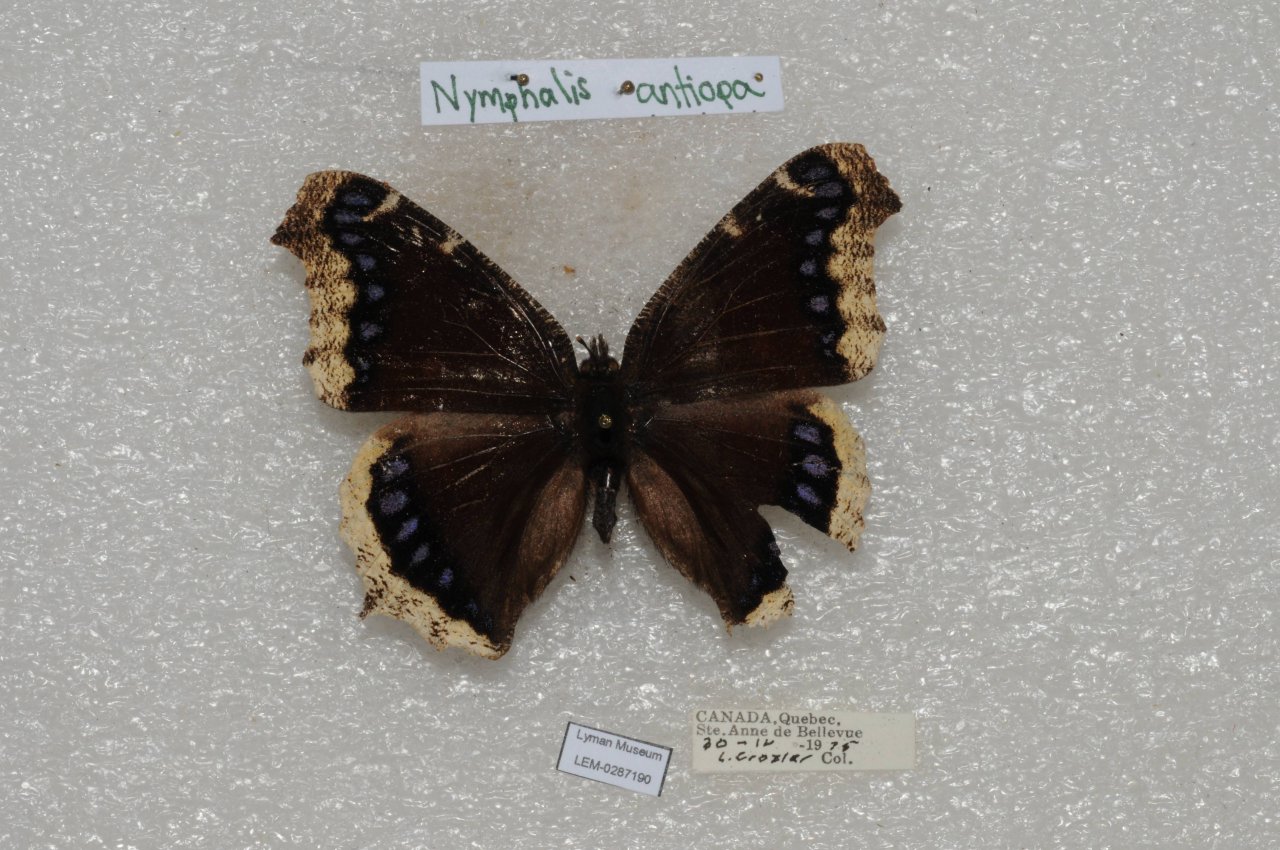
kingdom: Animalia
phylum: Arthropoda
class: Insecta
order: Lepidoptera
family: Nymphalidae
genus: Nymphalis
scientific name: Nymphalis antiopa
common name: Mourning Cloak
